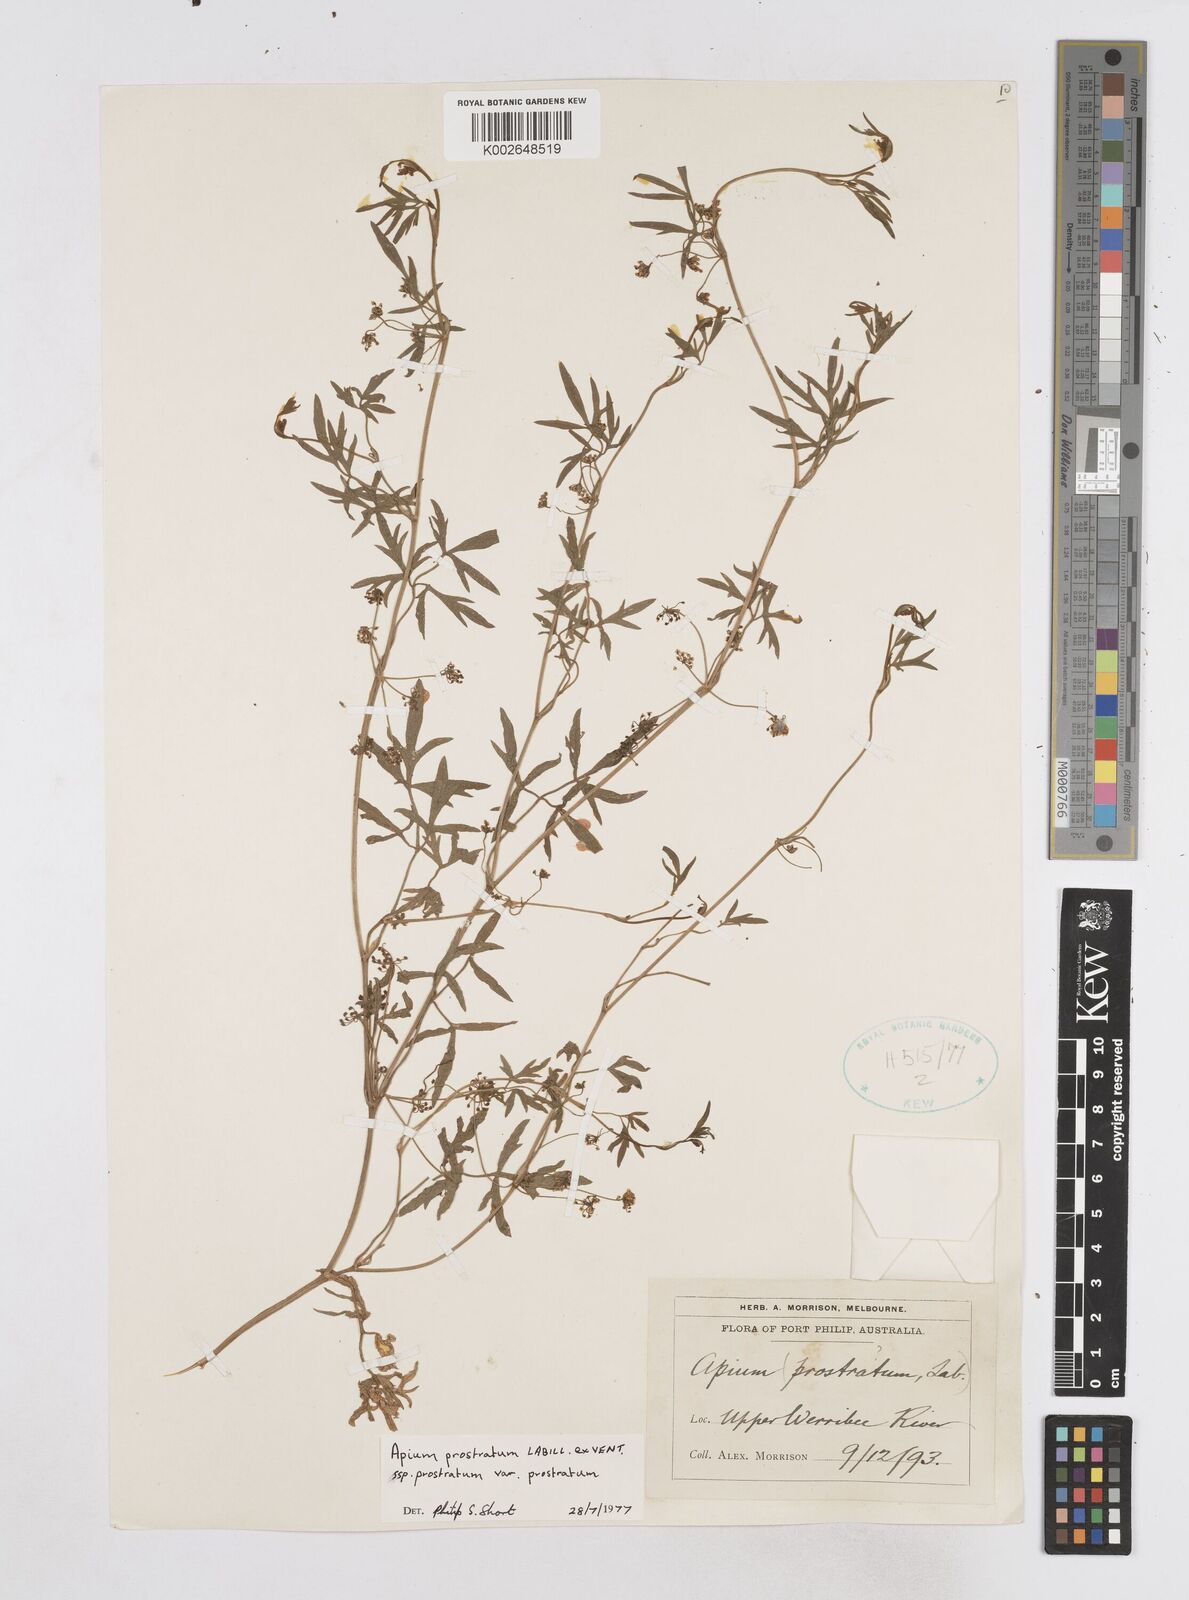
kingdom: Plantae
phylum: Tracheophyta
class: Magnoliopsida
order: Apiales
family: Apiaceae
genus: Apium
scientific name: Apium prostratum
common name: Prostrate marshwort
